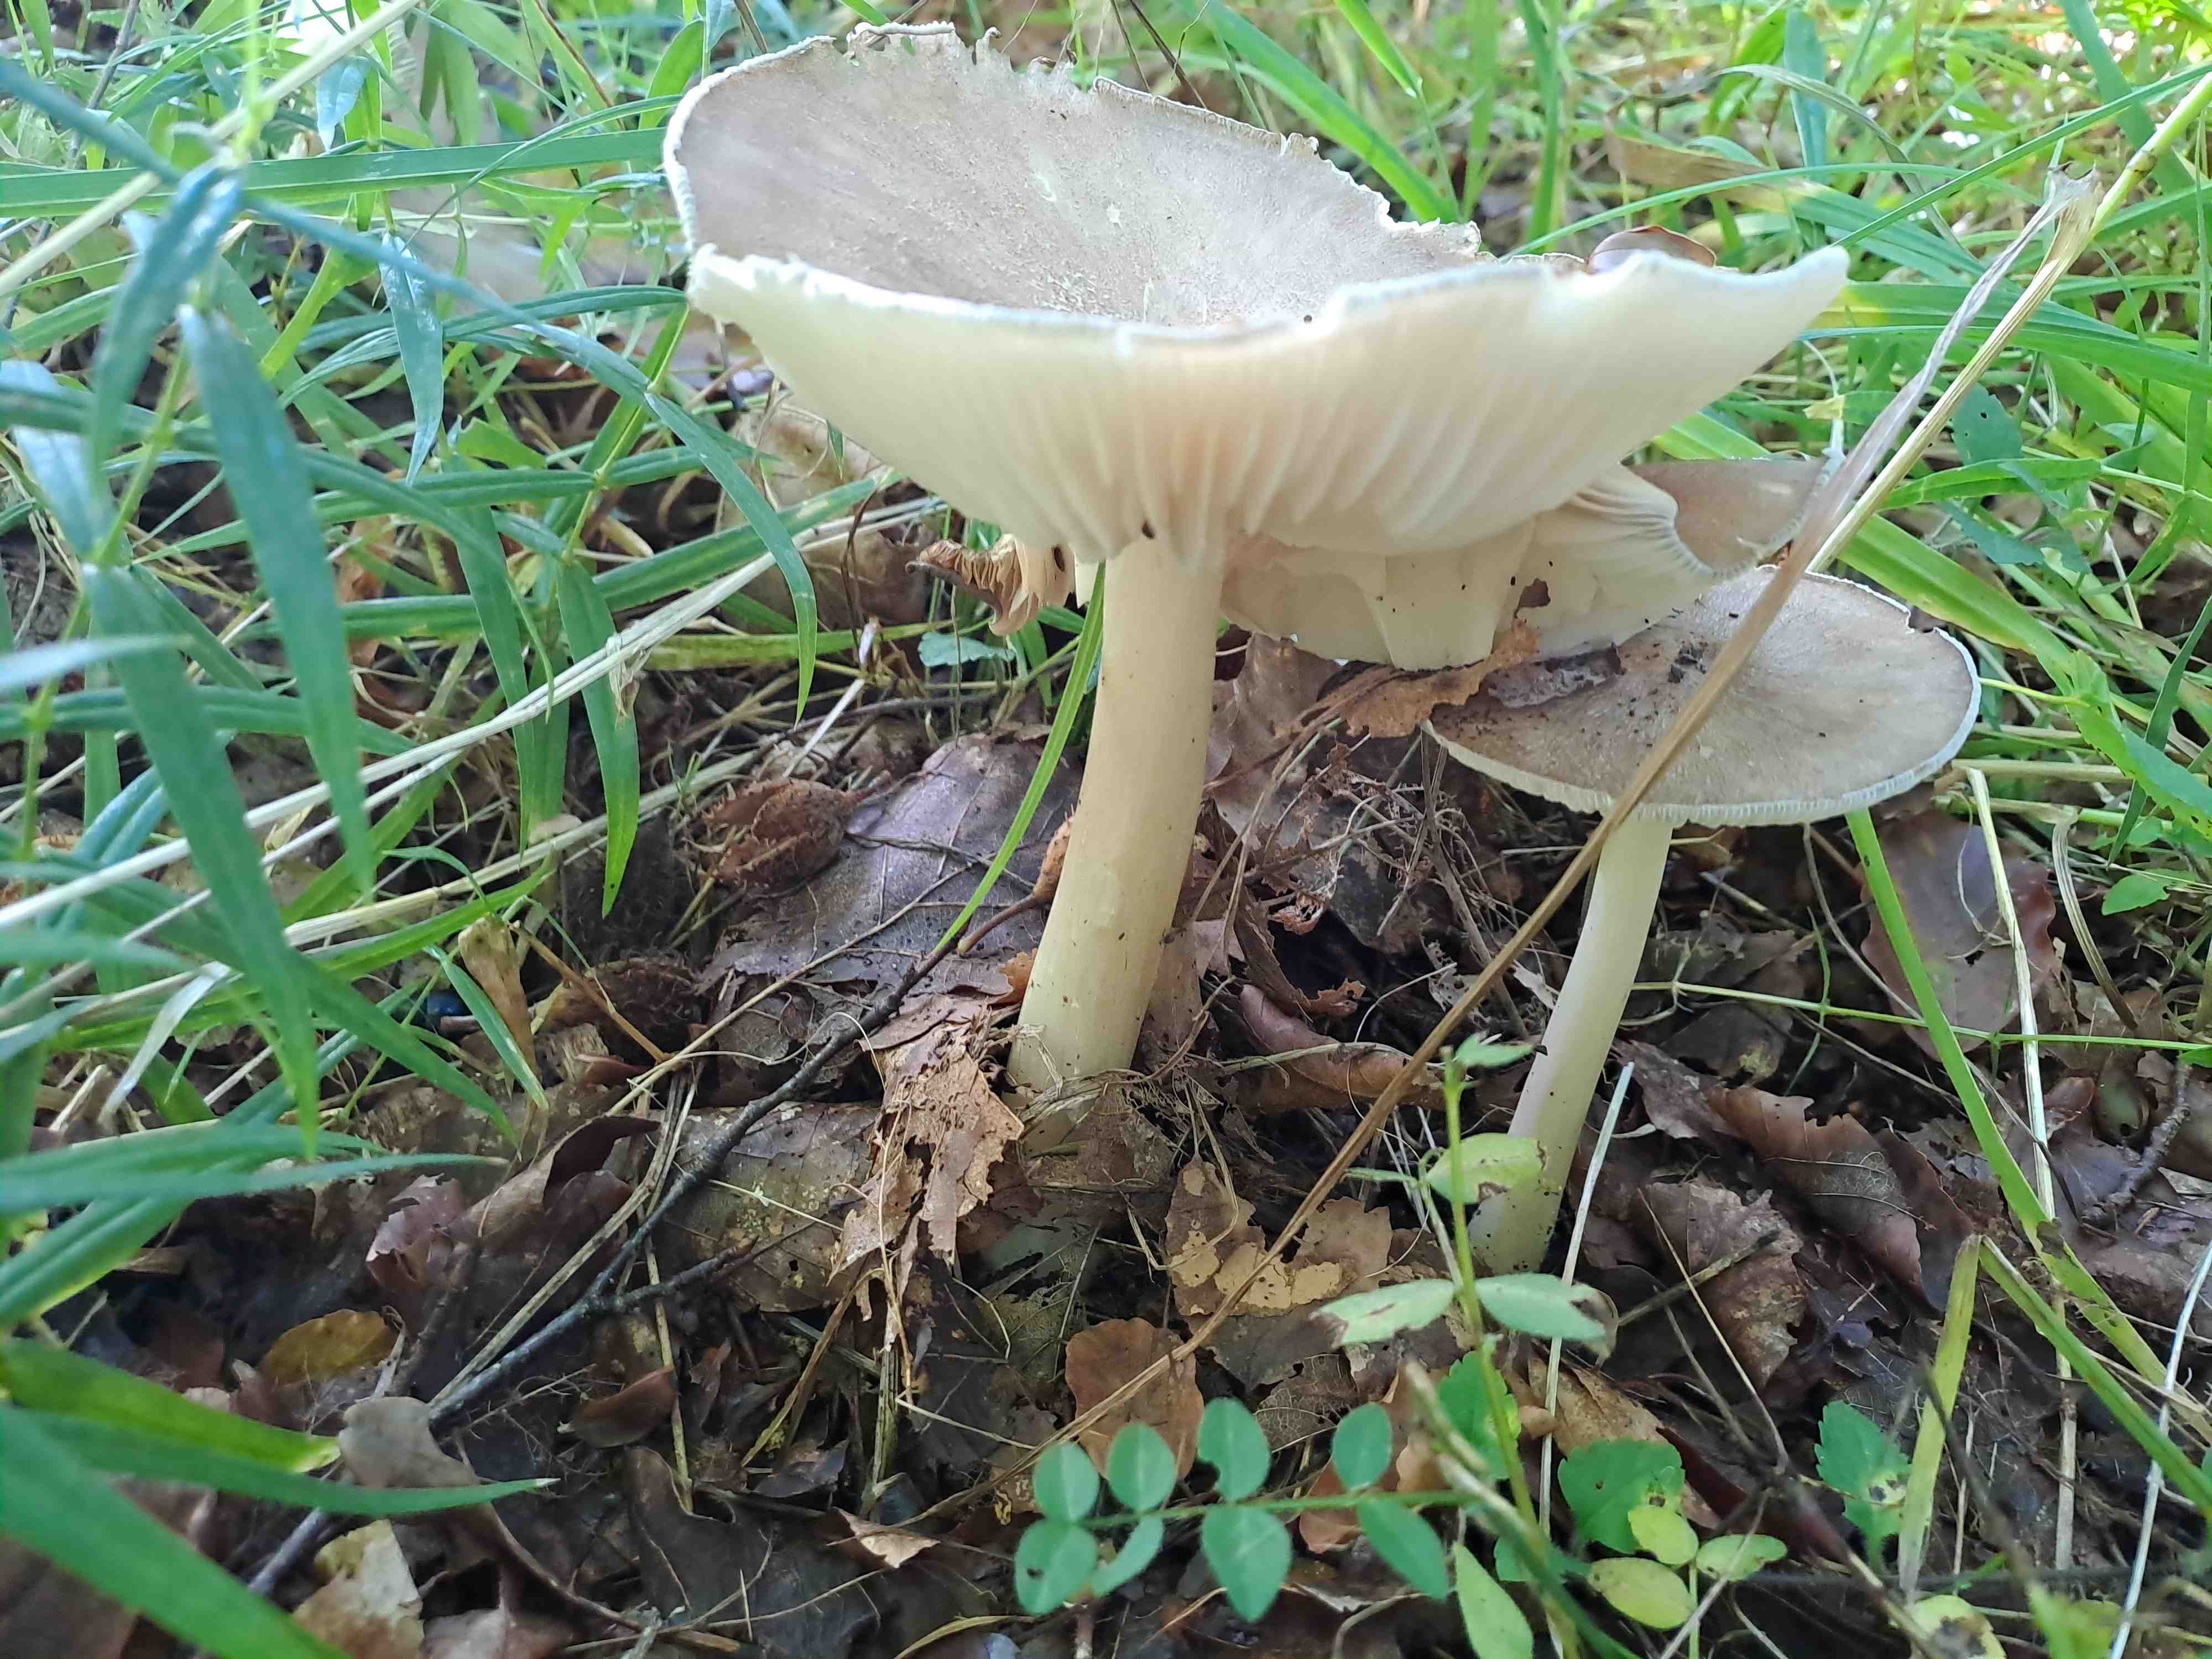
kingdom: Fungi
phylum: Basidiomycota
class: Agaricomycetes
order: Agaricales
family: Tricholomataceae
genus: Megacollybia
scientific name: Megacollybia platyphylla
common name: bredbladet væbnerhat
